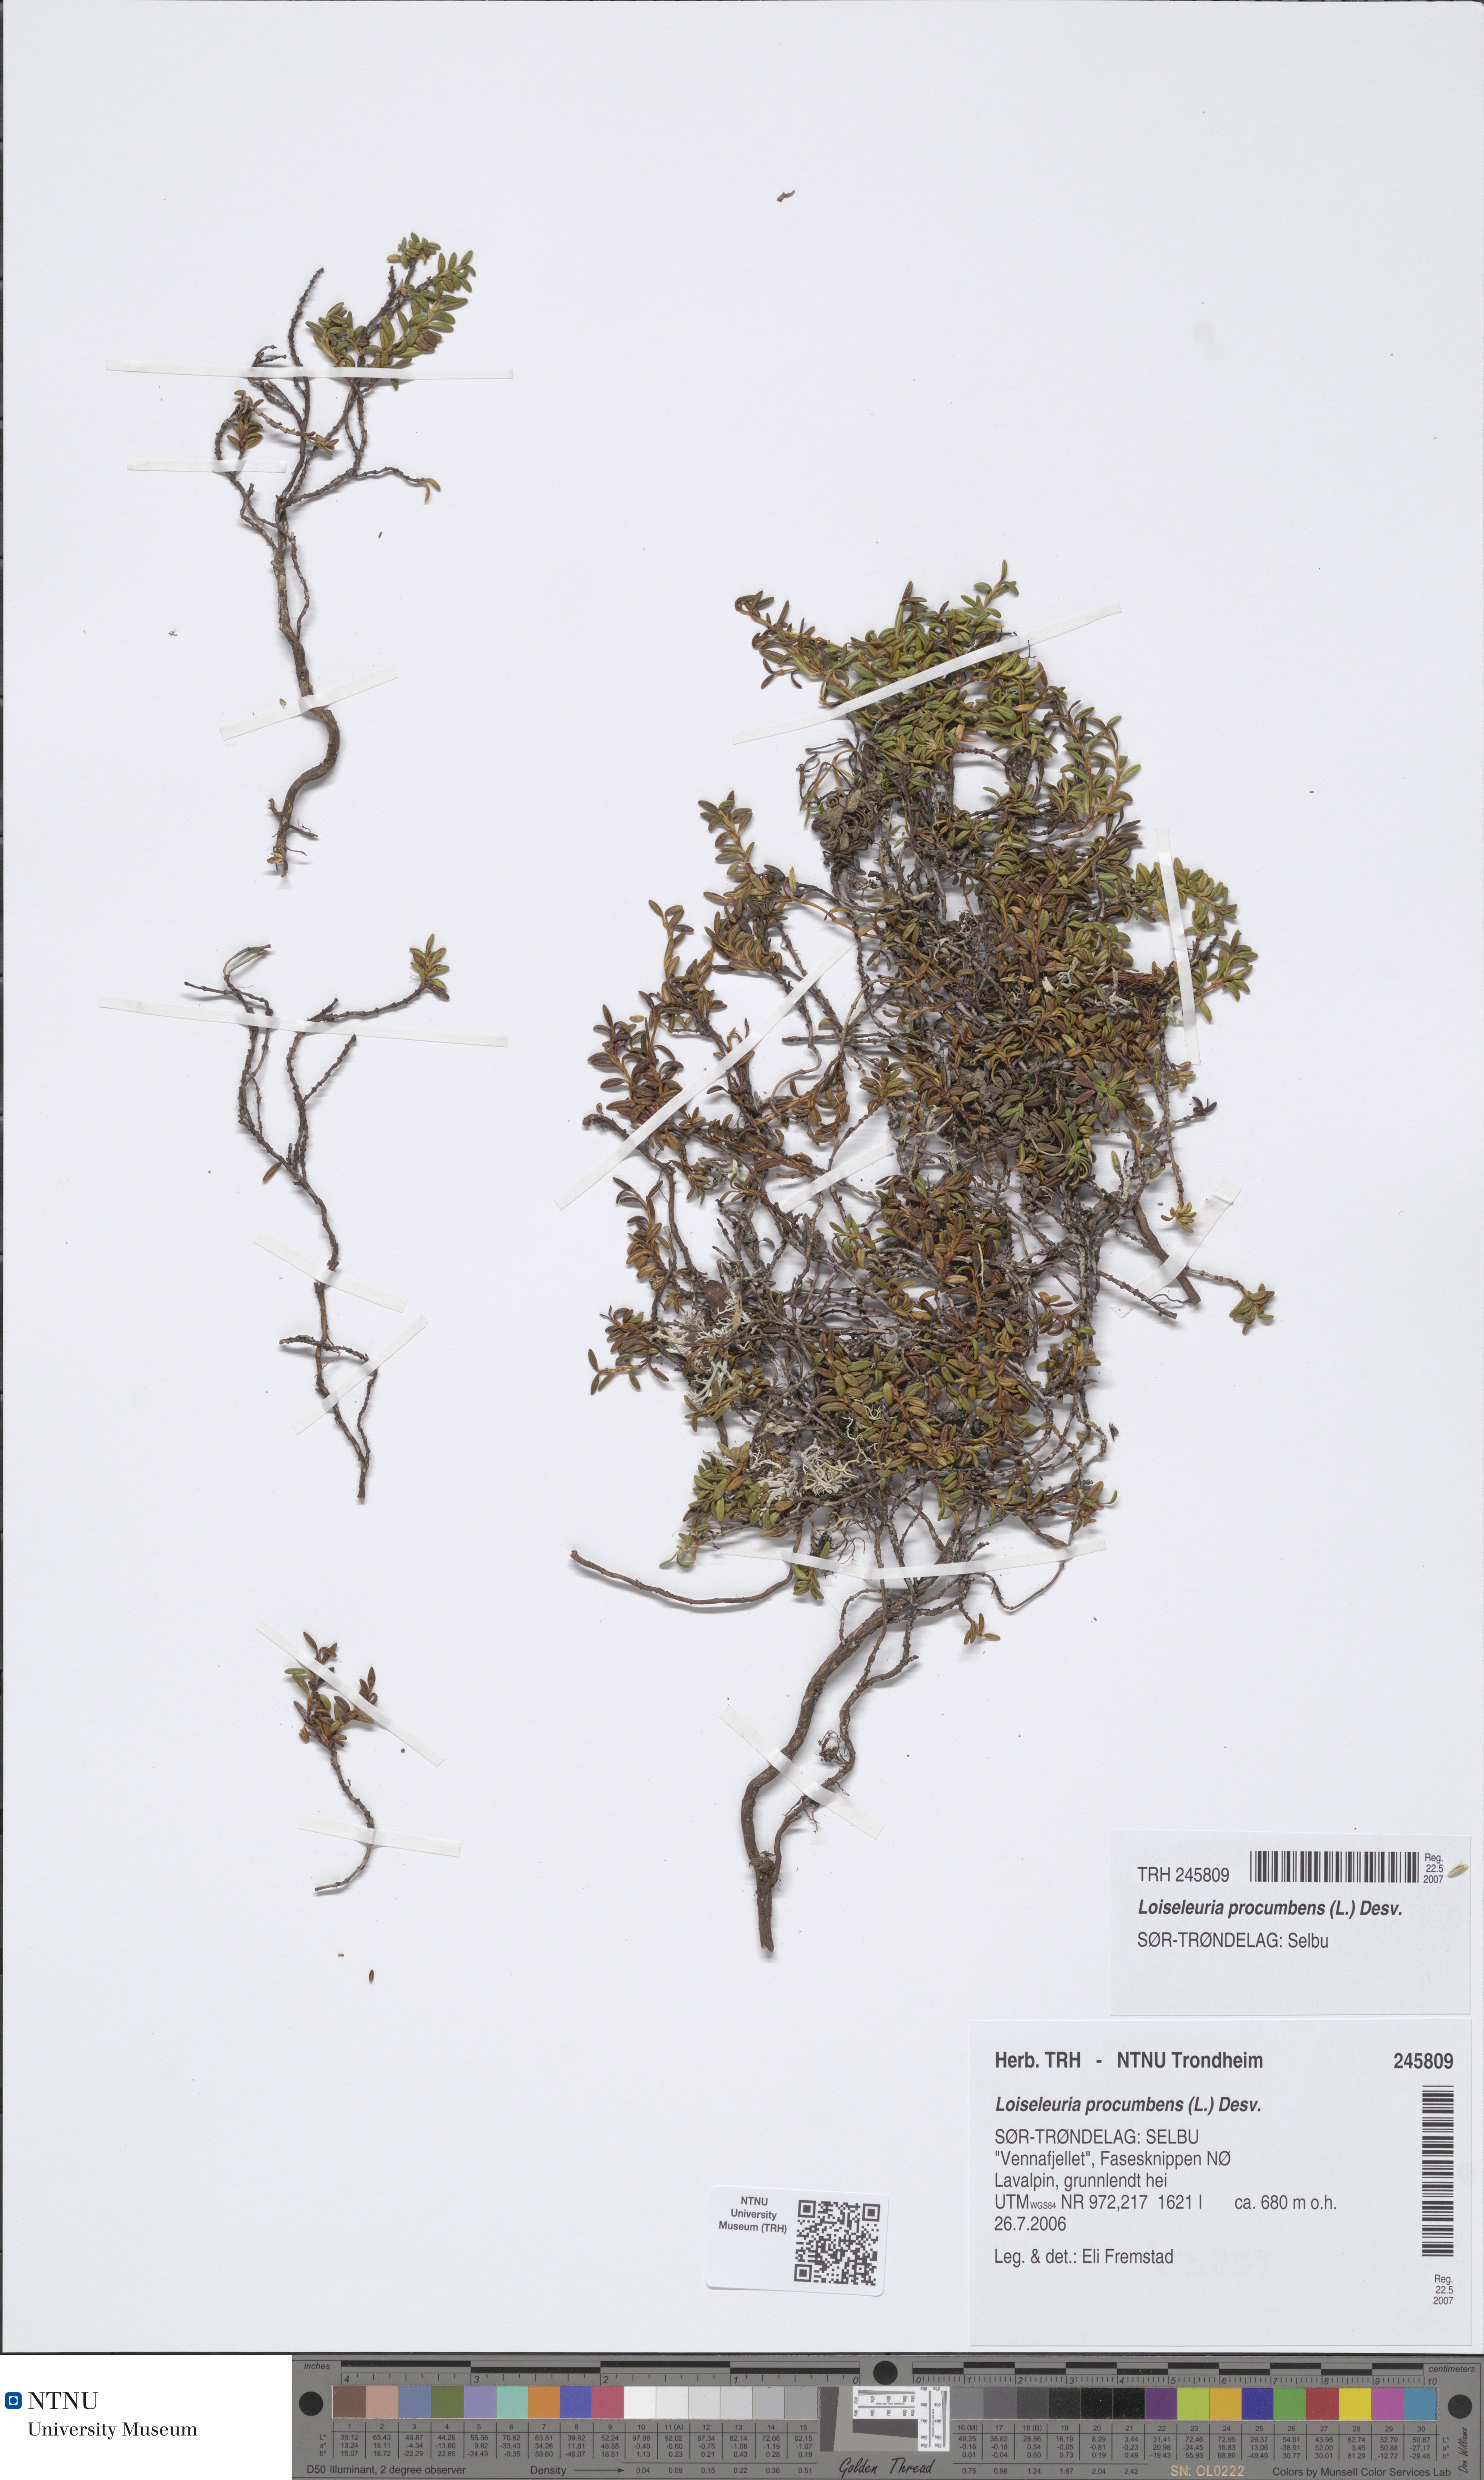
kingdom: Plantae
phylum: Tracheophyta
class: Magnoliopsida
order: Ericales
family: Ericaceae
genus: Kalmia
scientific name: Kalmia procumbens
